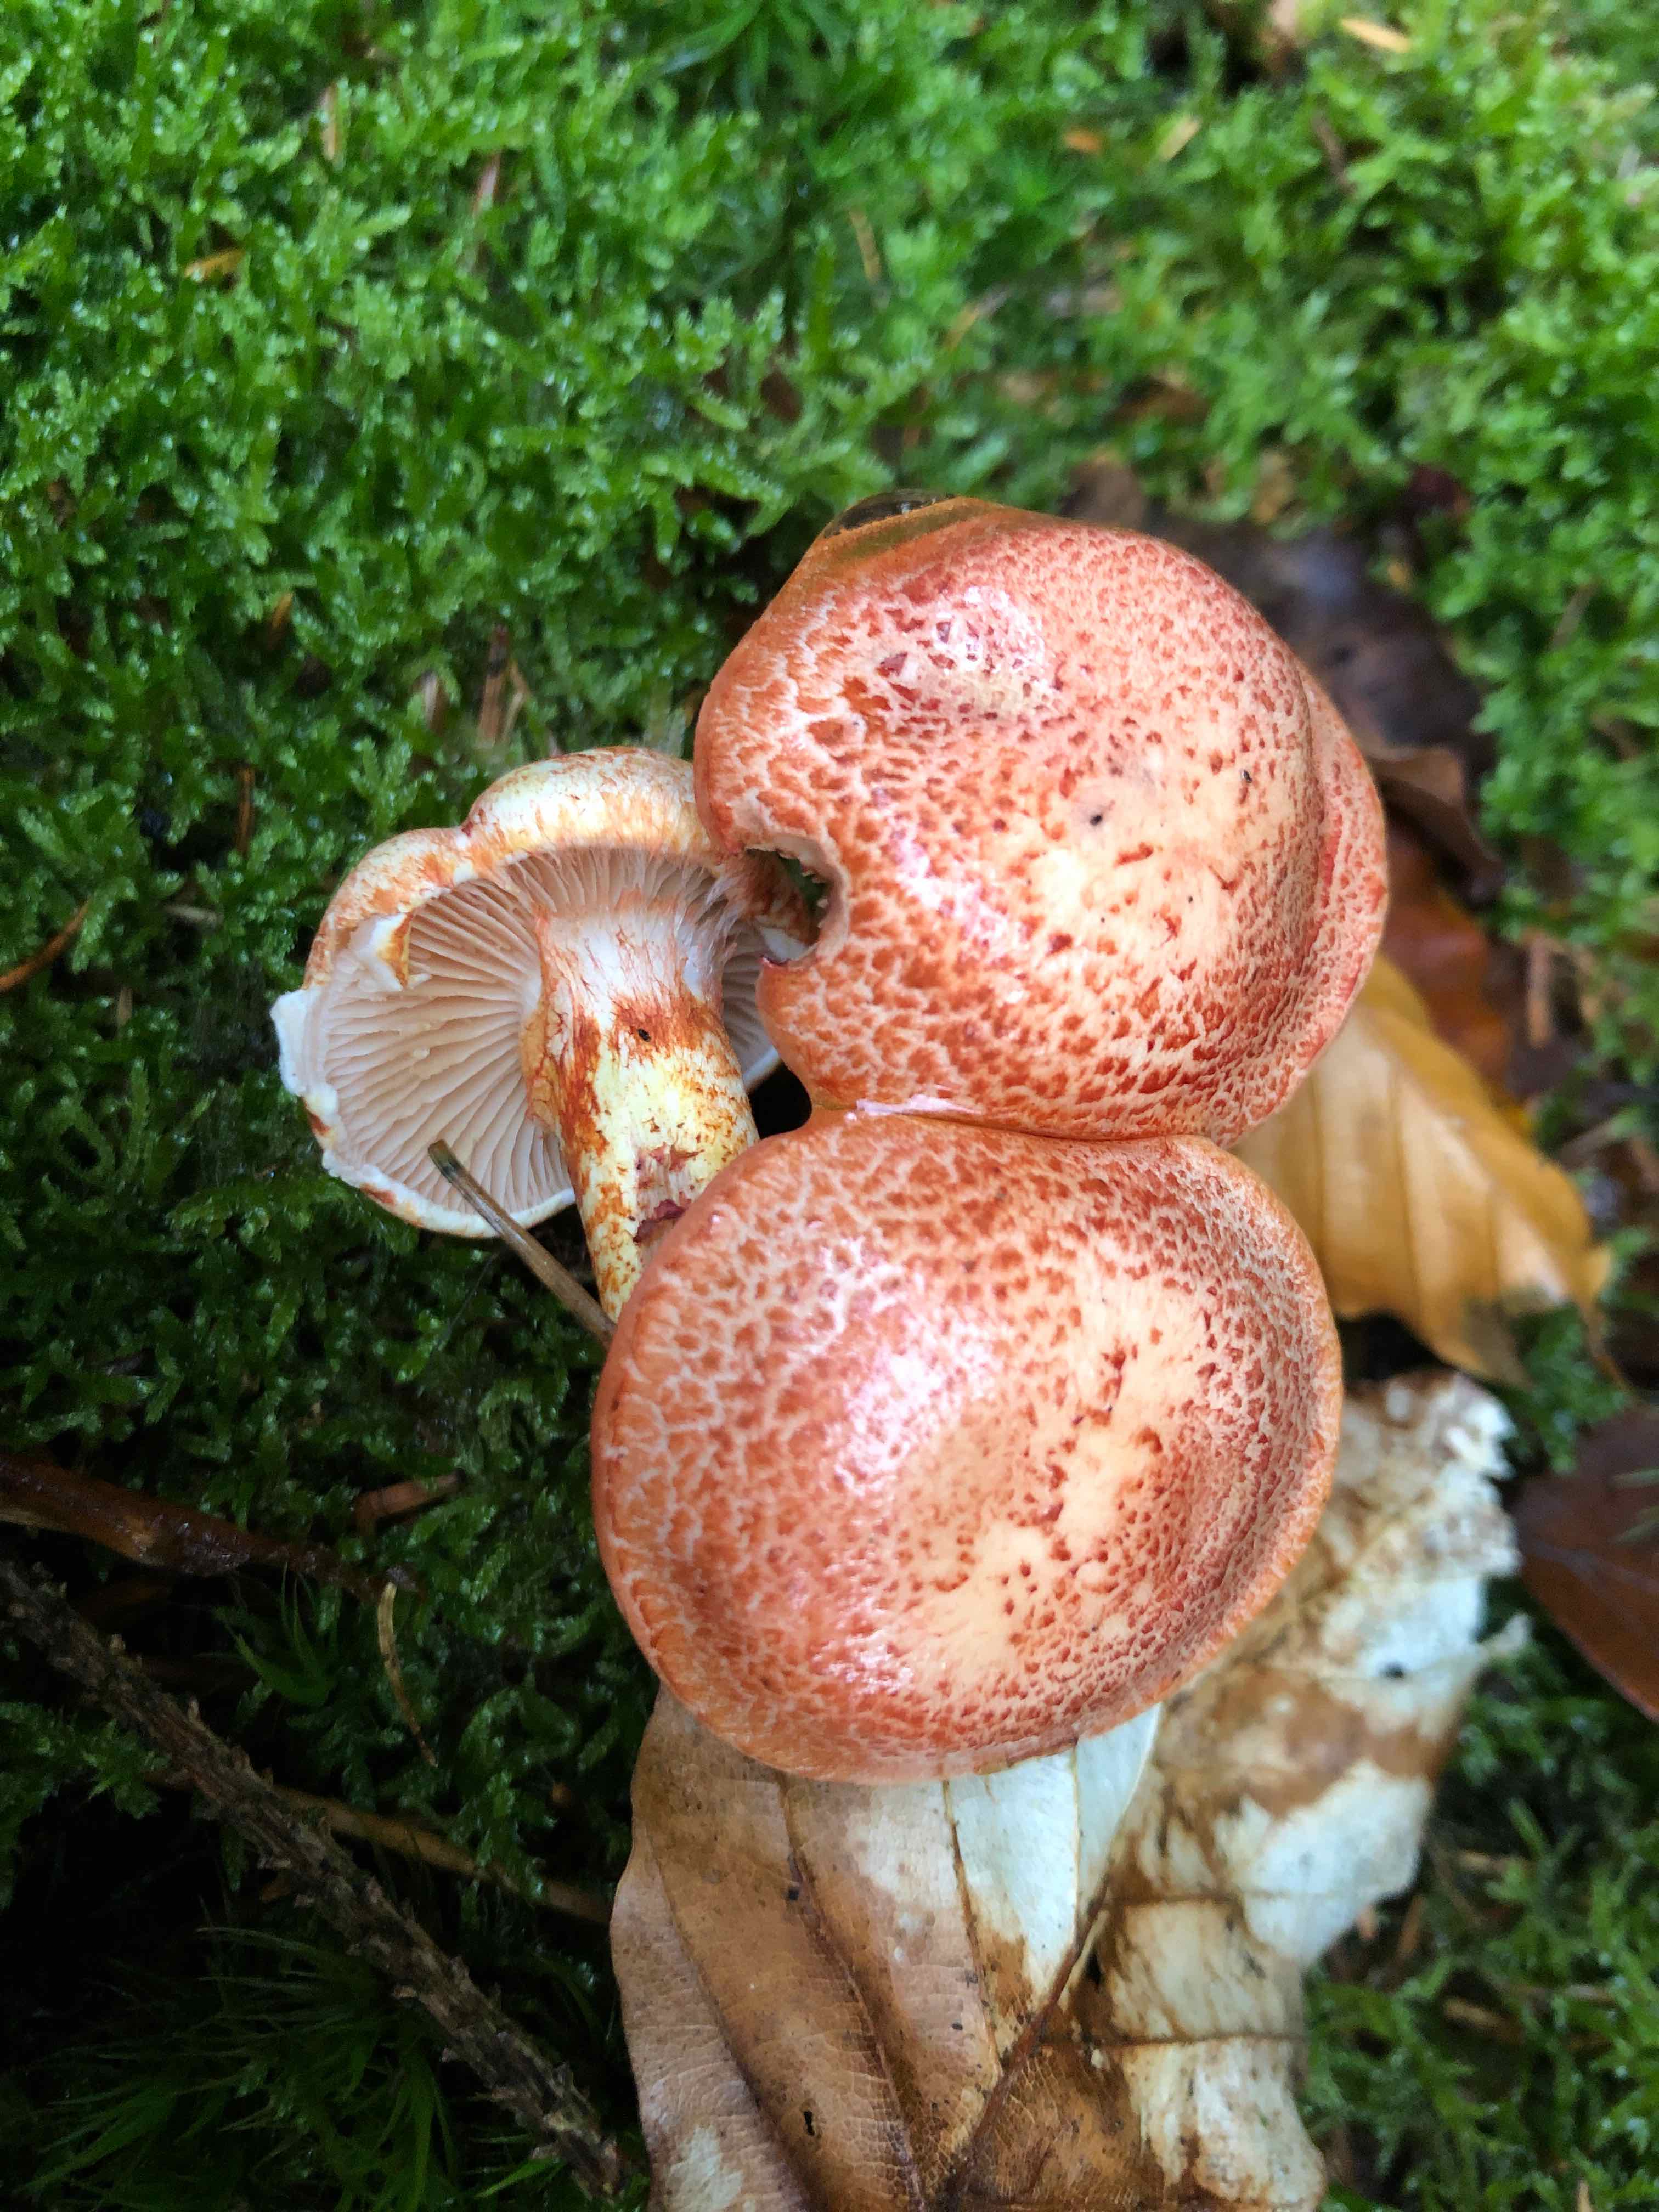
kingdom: Fungi
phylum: Basidiomycota
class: Agaricomycetes
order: Agaricales
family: Cortinariaceae
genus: Cortinarius
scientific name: Cortinarius bolaris
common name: cinnoberskællet slørhat
